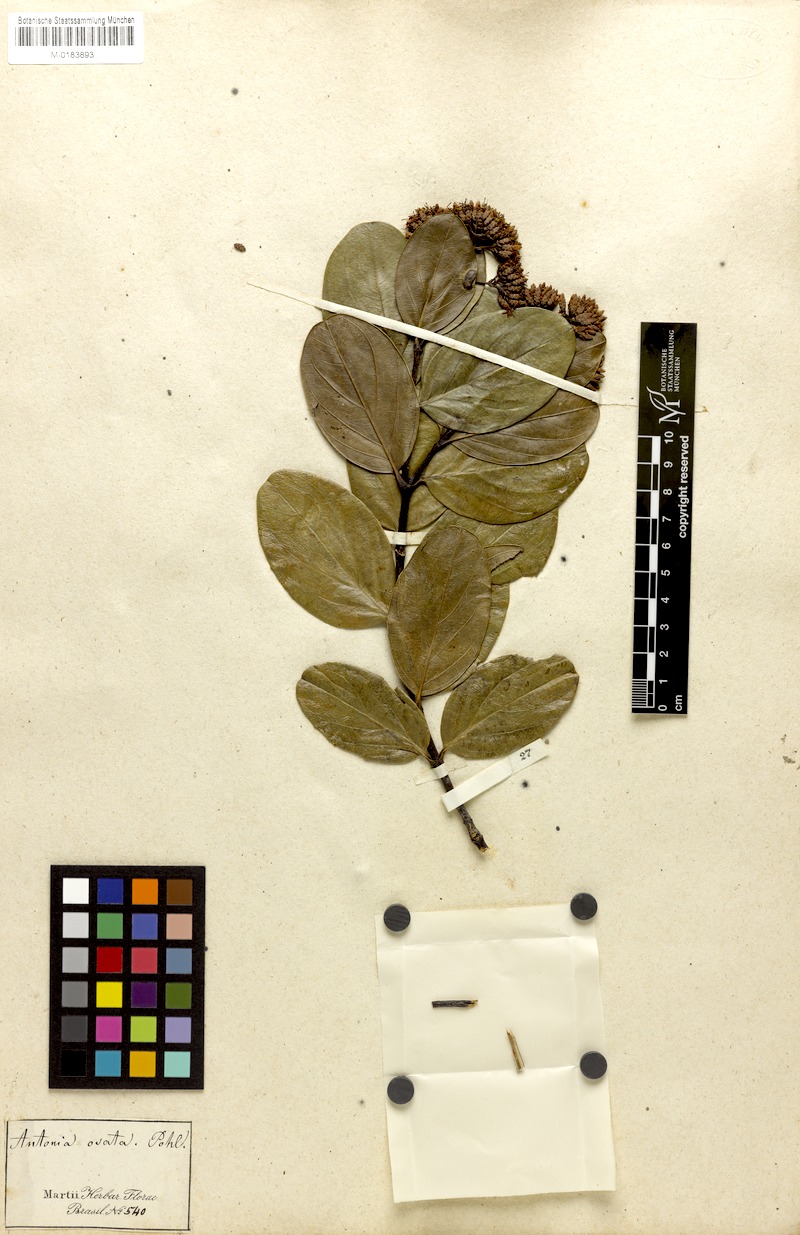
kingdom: Plantae
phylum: Tracheophyta
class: Magnoliopsida
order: Gentianales
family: Loganiaceae
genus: Antonia
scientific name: Antonia ovata
